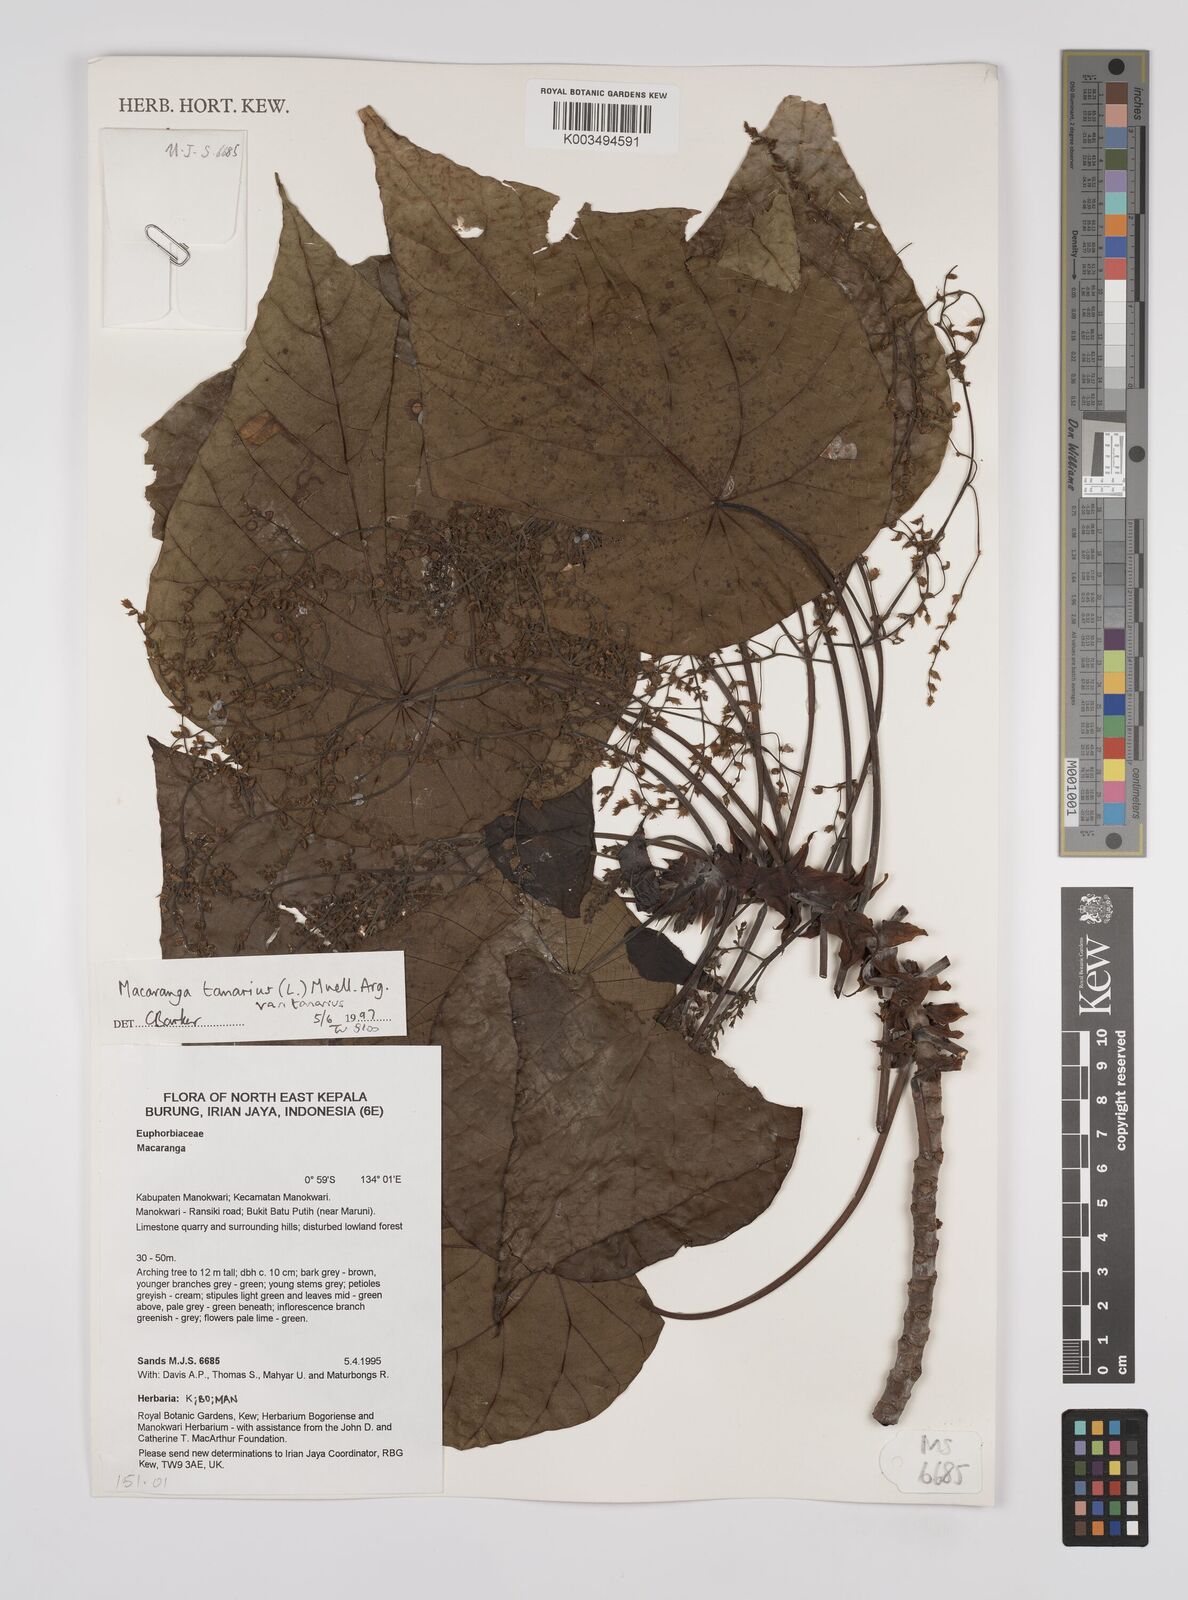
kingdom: Plantae
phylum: Tracheophyta
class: Magnoliopsida
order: Malpighiales
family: Euphorbiaceae
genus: Macaranga
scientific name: Macaranga tanarius
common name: Parasol leaf tree
